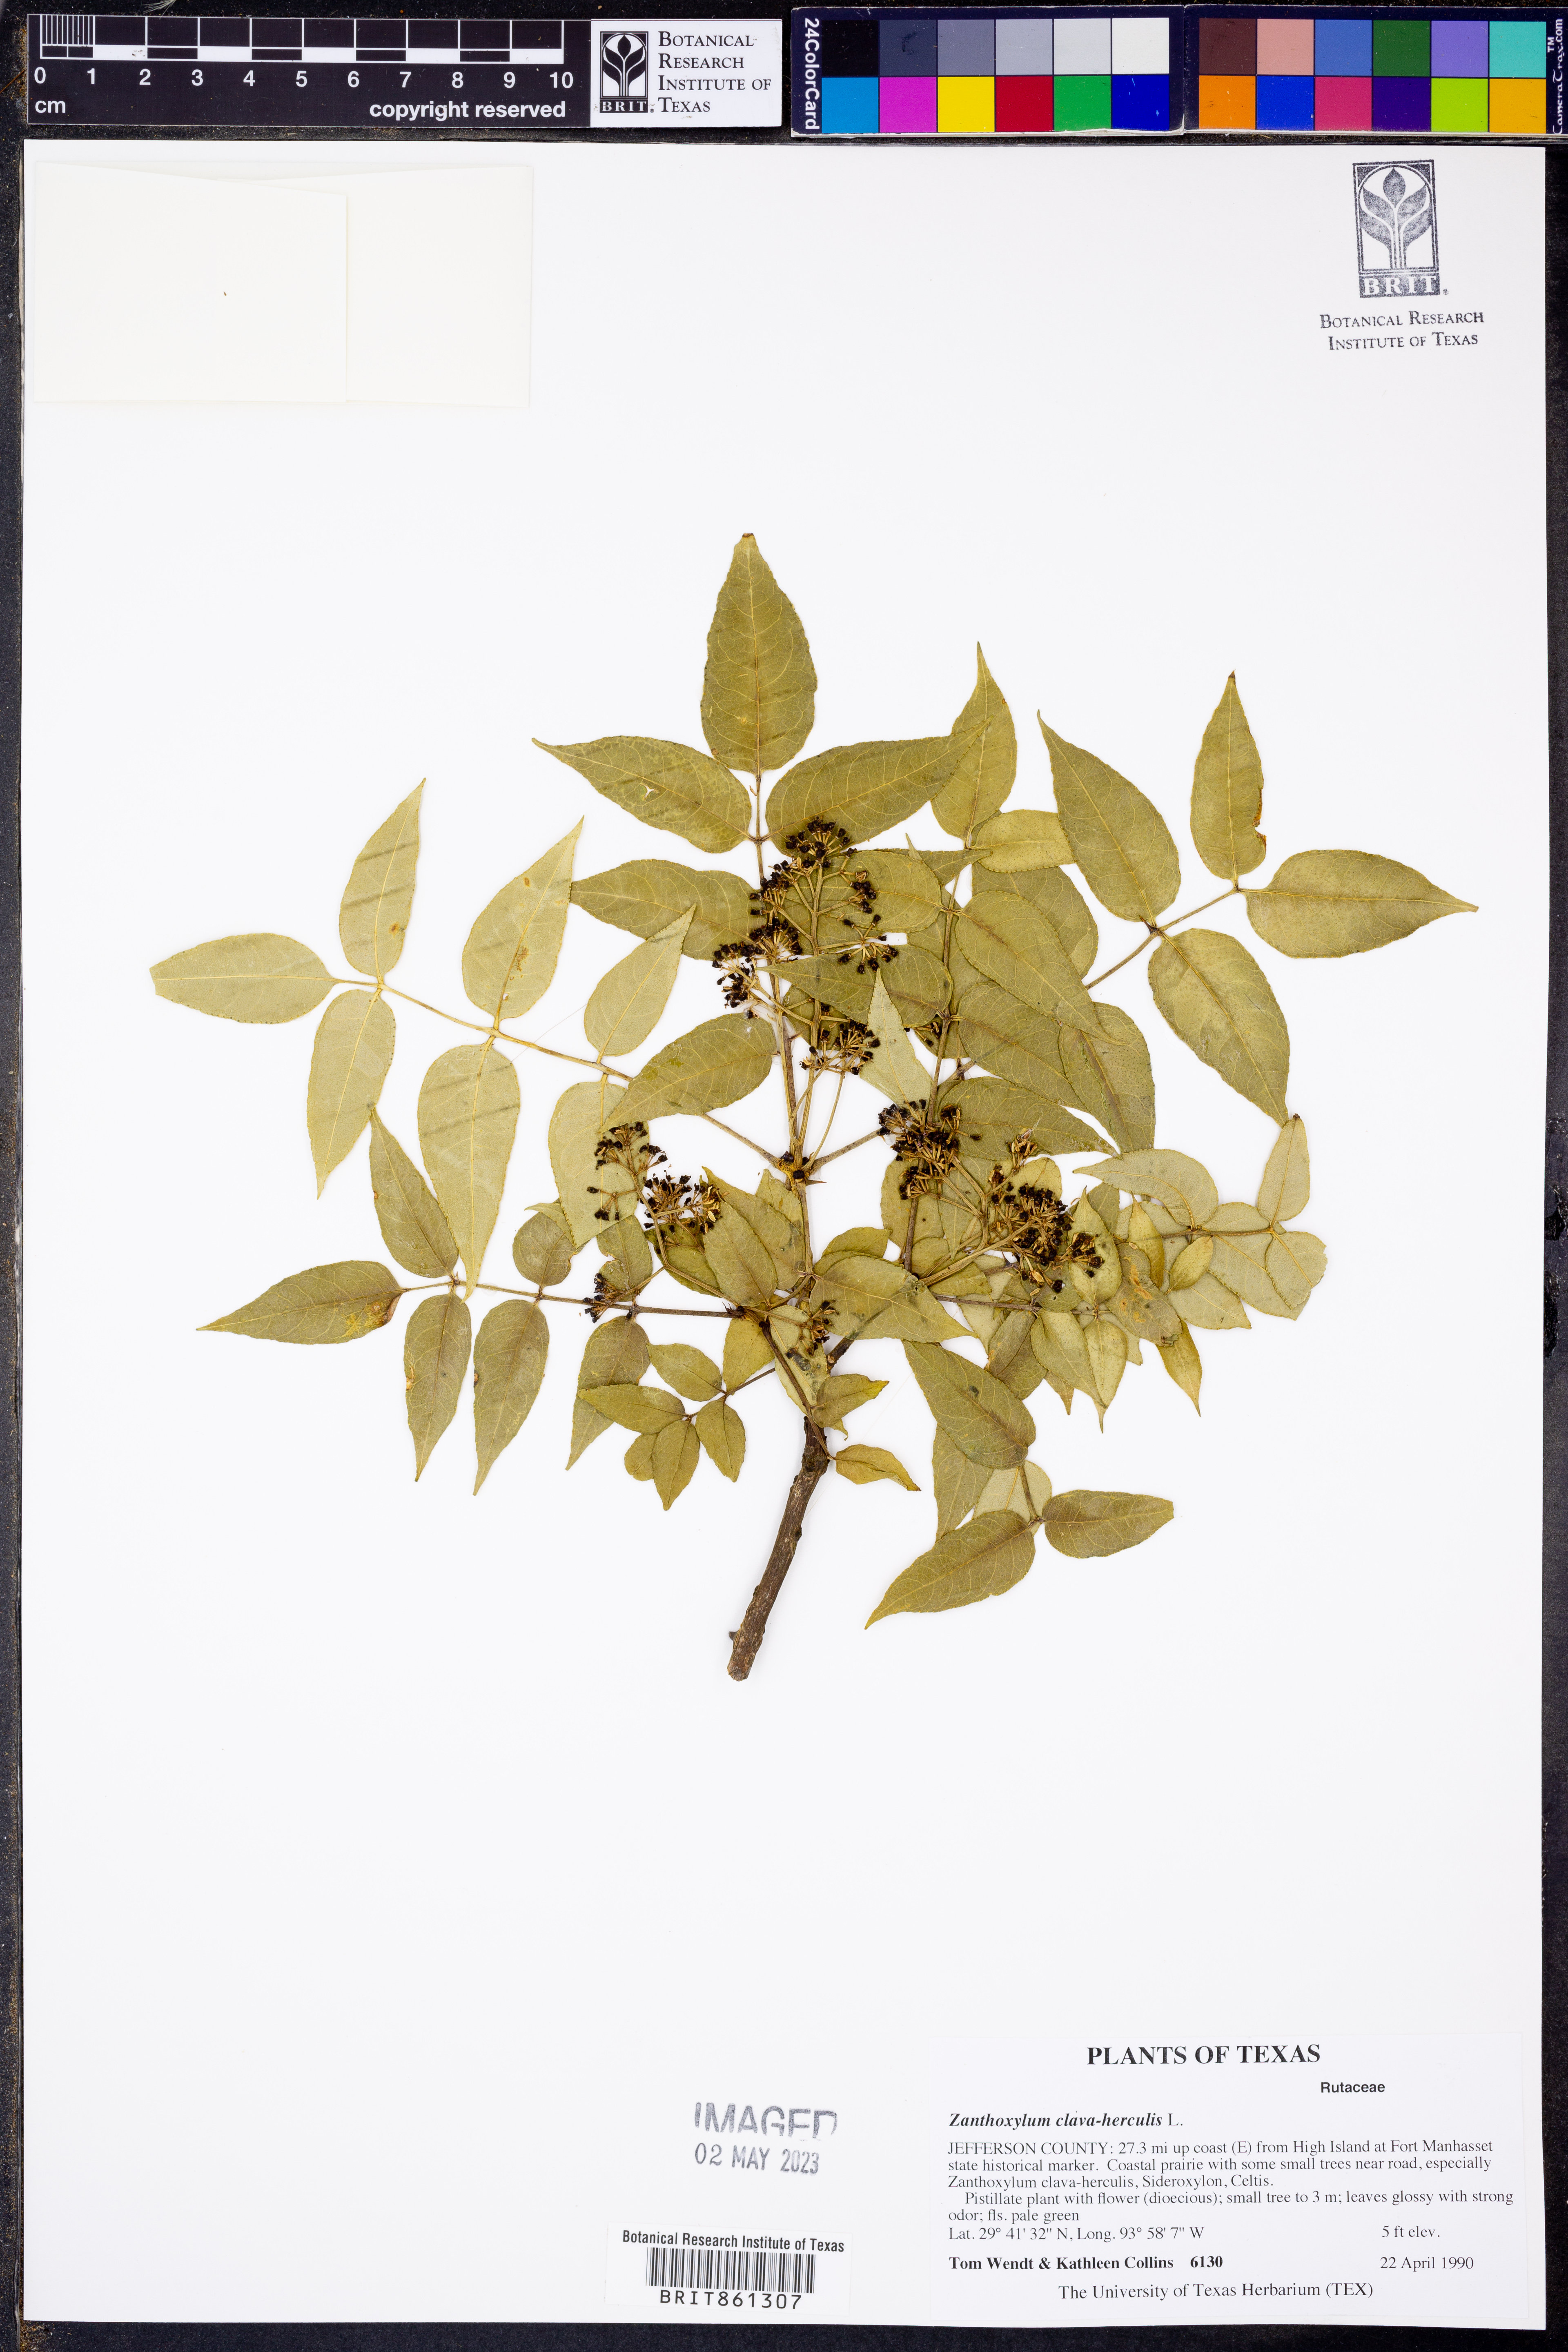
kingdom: Plantae
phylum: Tracheophyta
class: Magnoliopsida
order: Sapindales
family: Rutaceae
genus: Zanthoxylum
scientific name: Zanthoxylum avicennae
